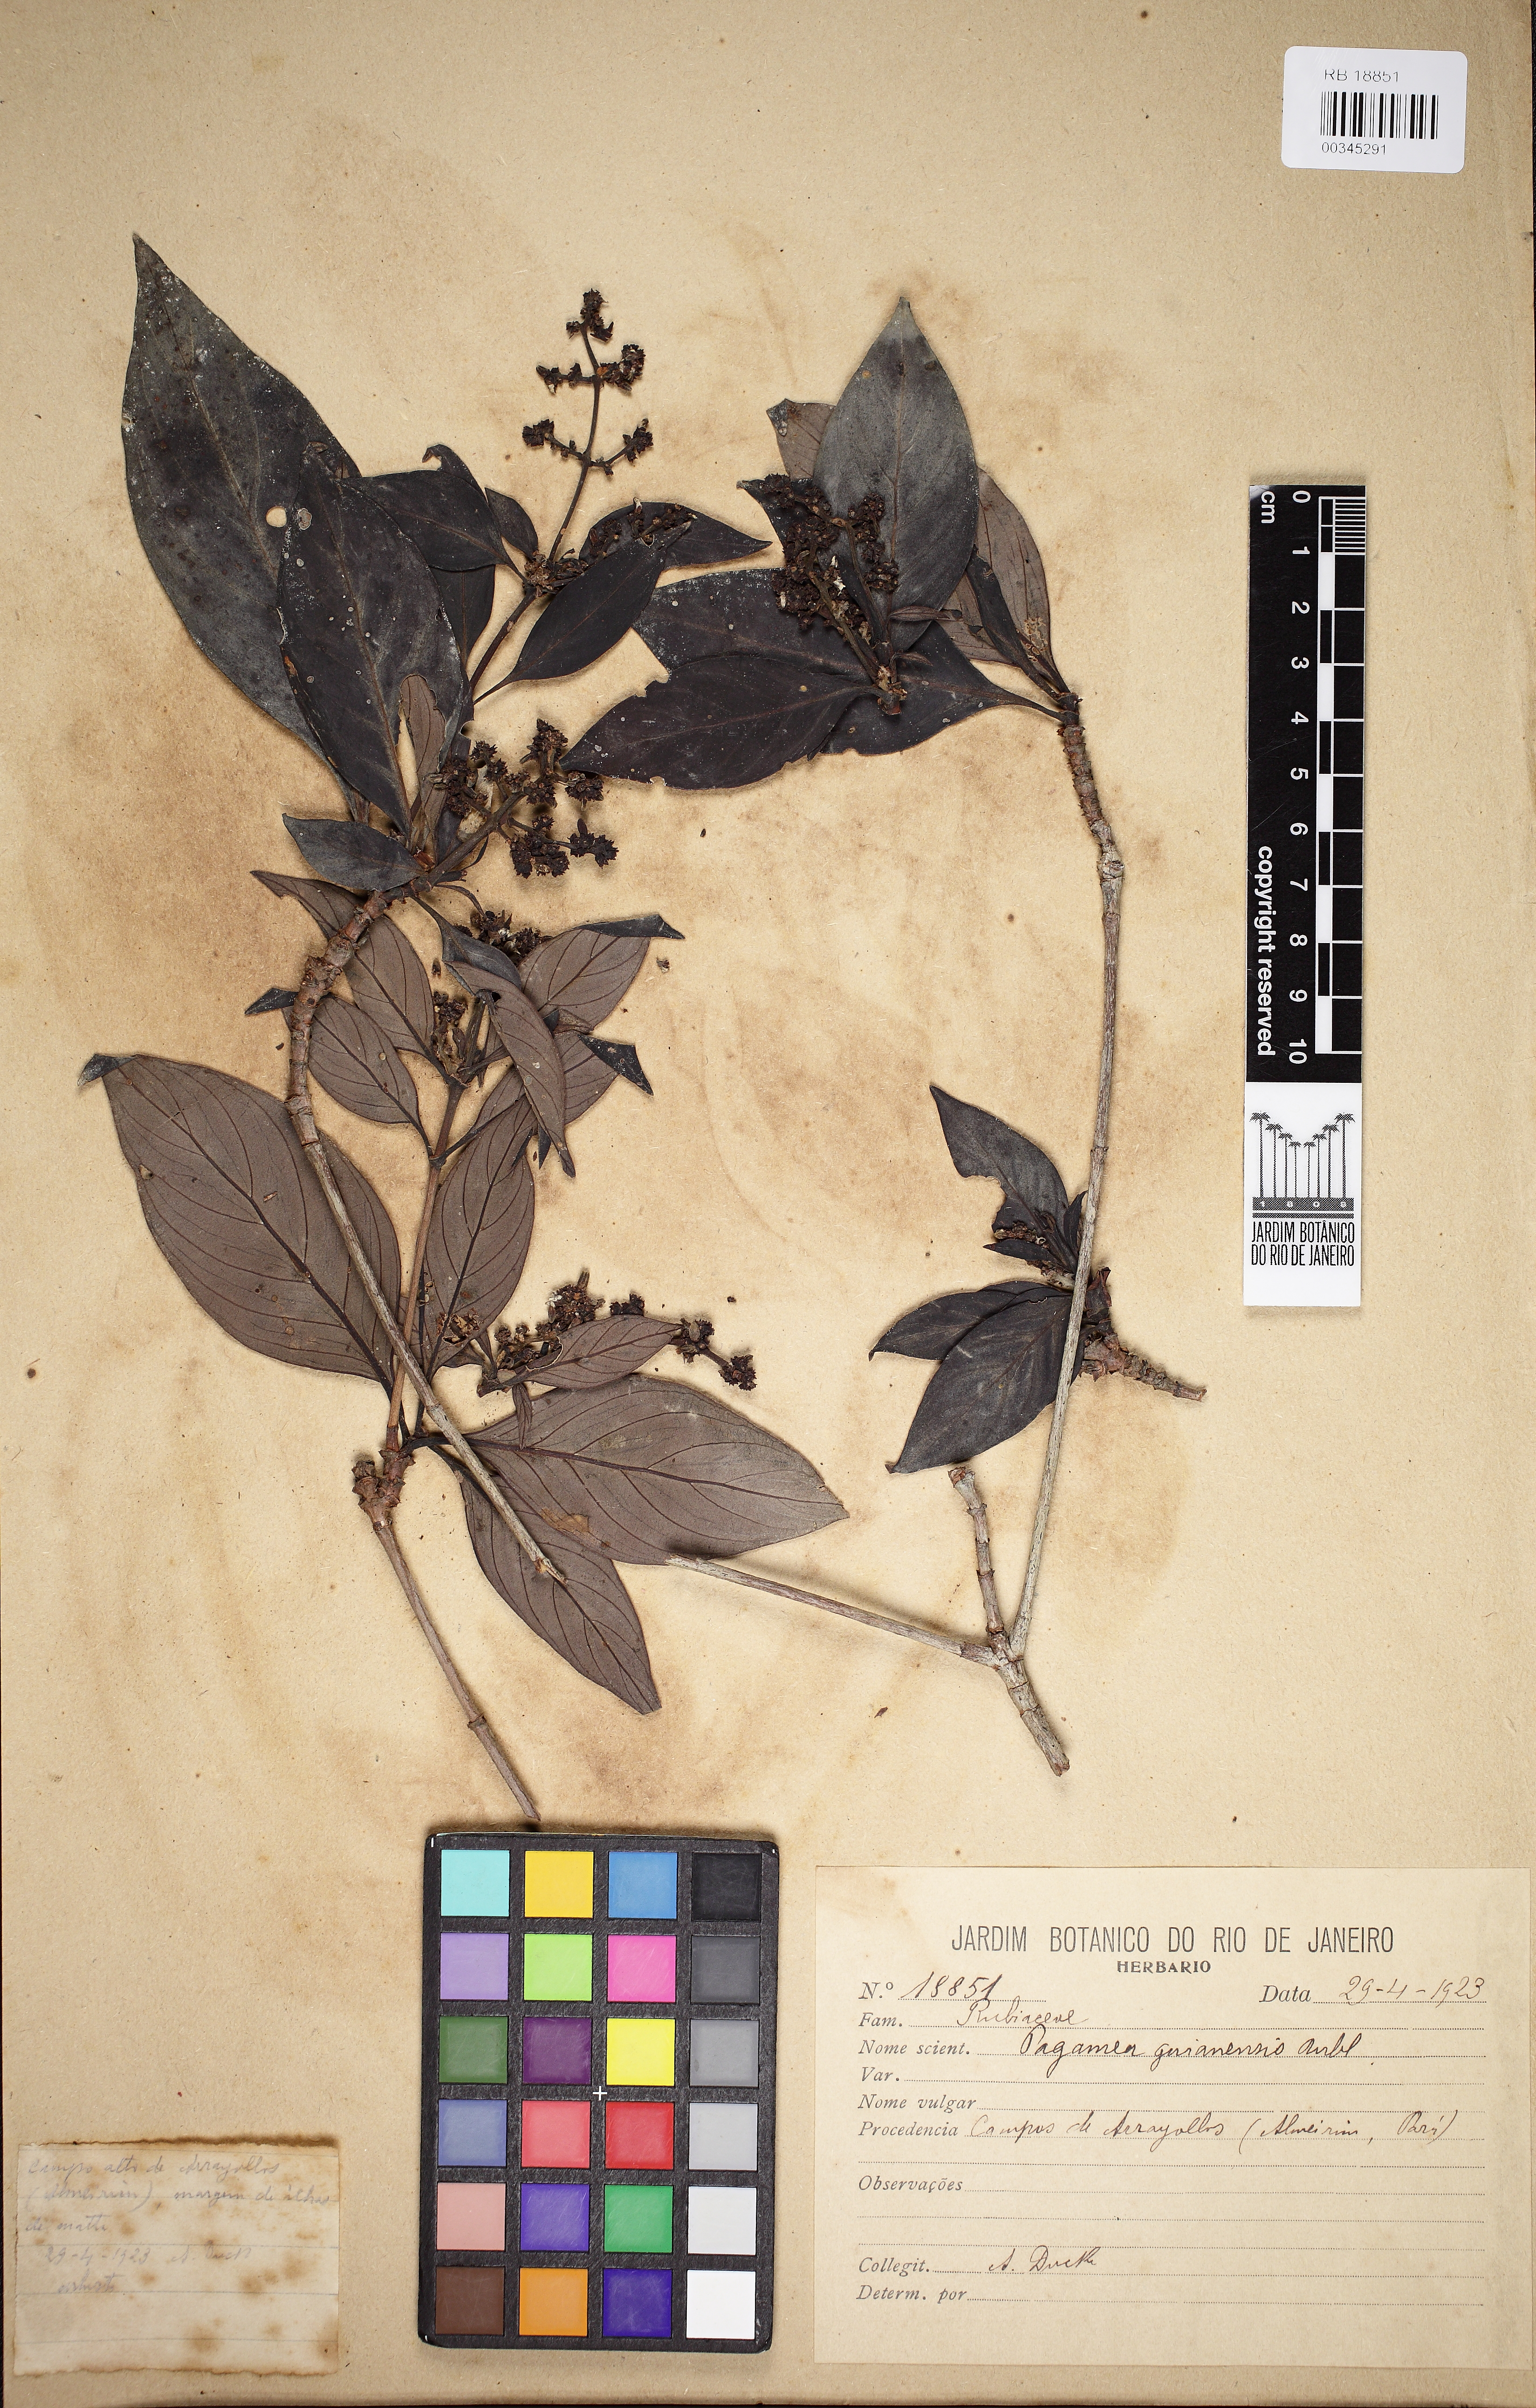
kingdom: Plantae
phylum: Tracheophyta
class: Magnoliopsida
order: Gentianales
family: Rubiaceae
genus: Pagamea
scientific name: Pagamea guianensis
